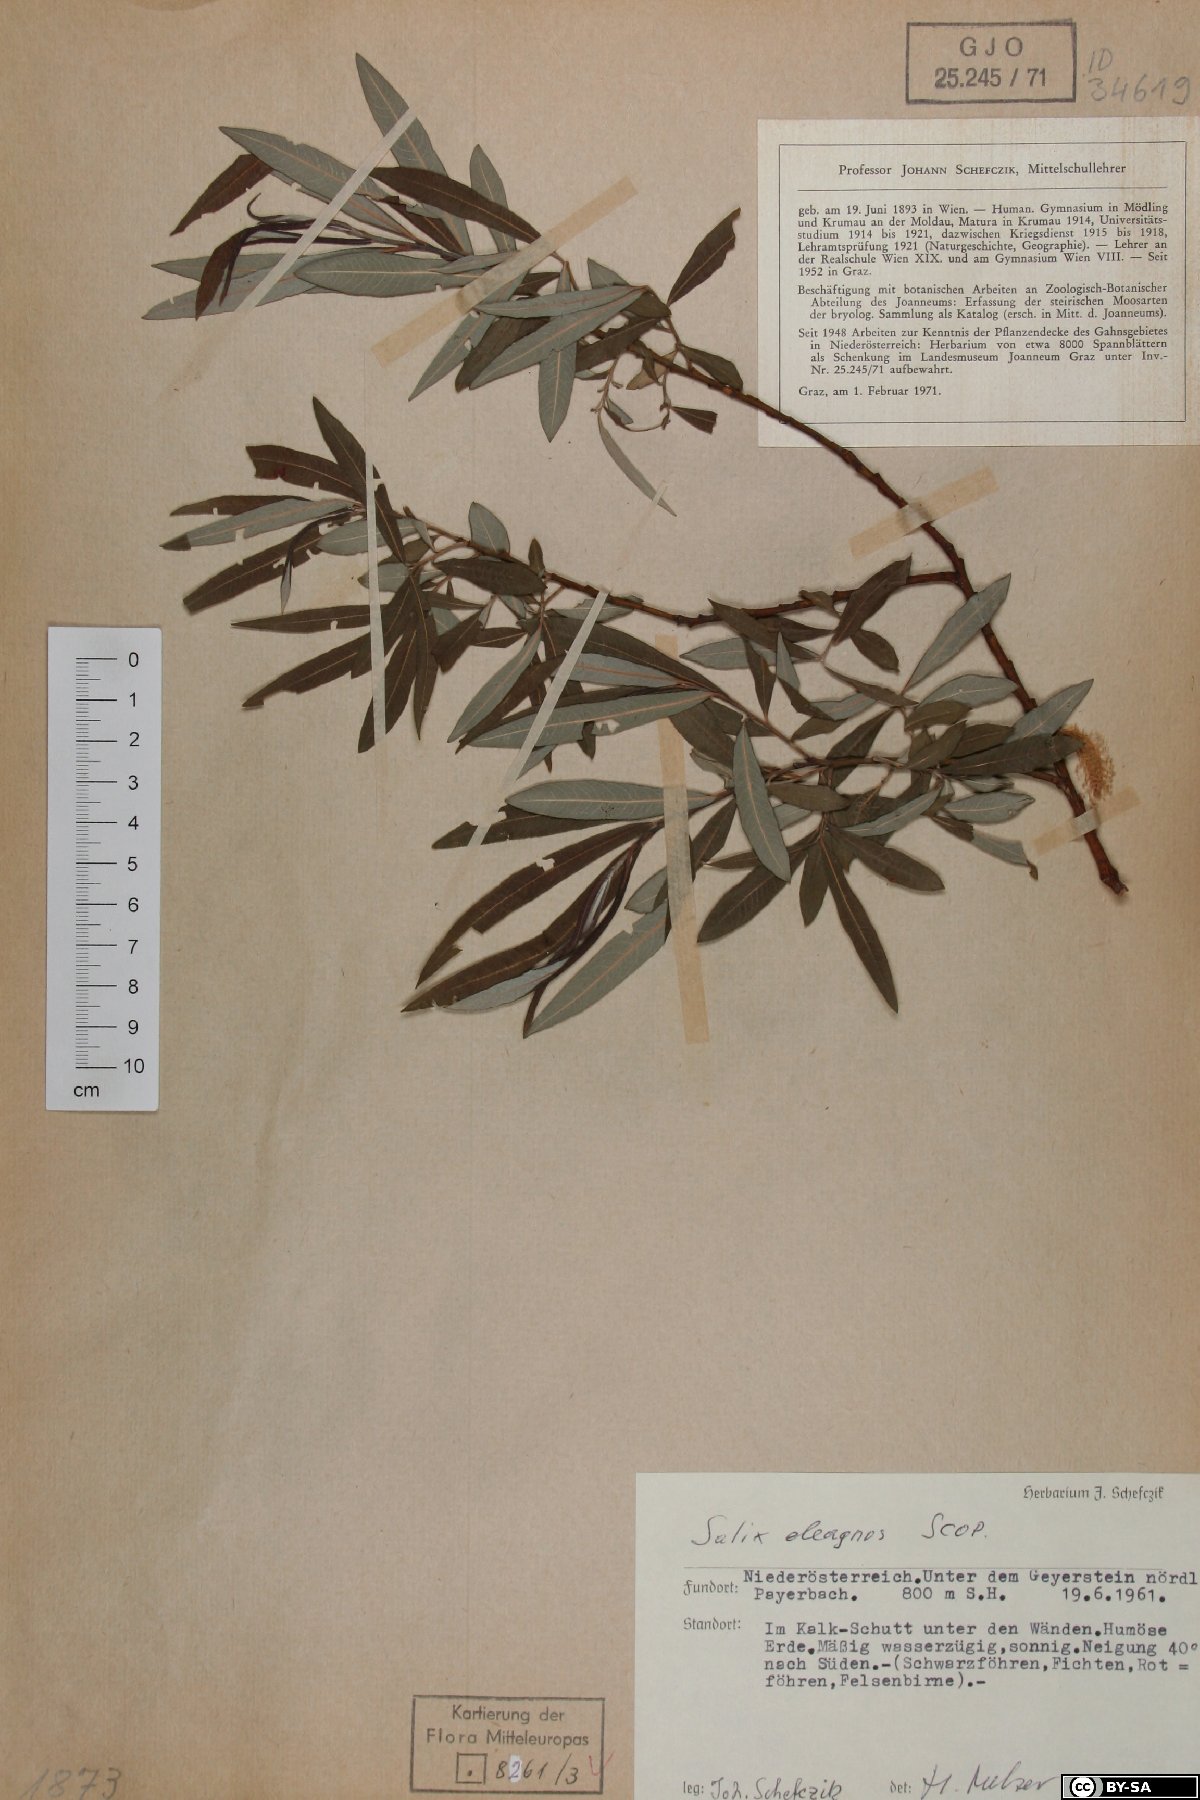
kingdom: Plantae
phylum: Tracheophyta
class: Magnoliopsida
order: Malpighiales
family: Salicaceae
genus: Salix
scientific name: Salix eleagnos
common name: Elaeagnus willow
